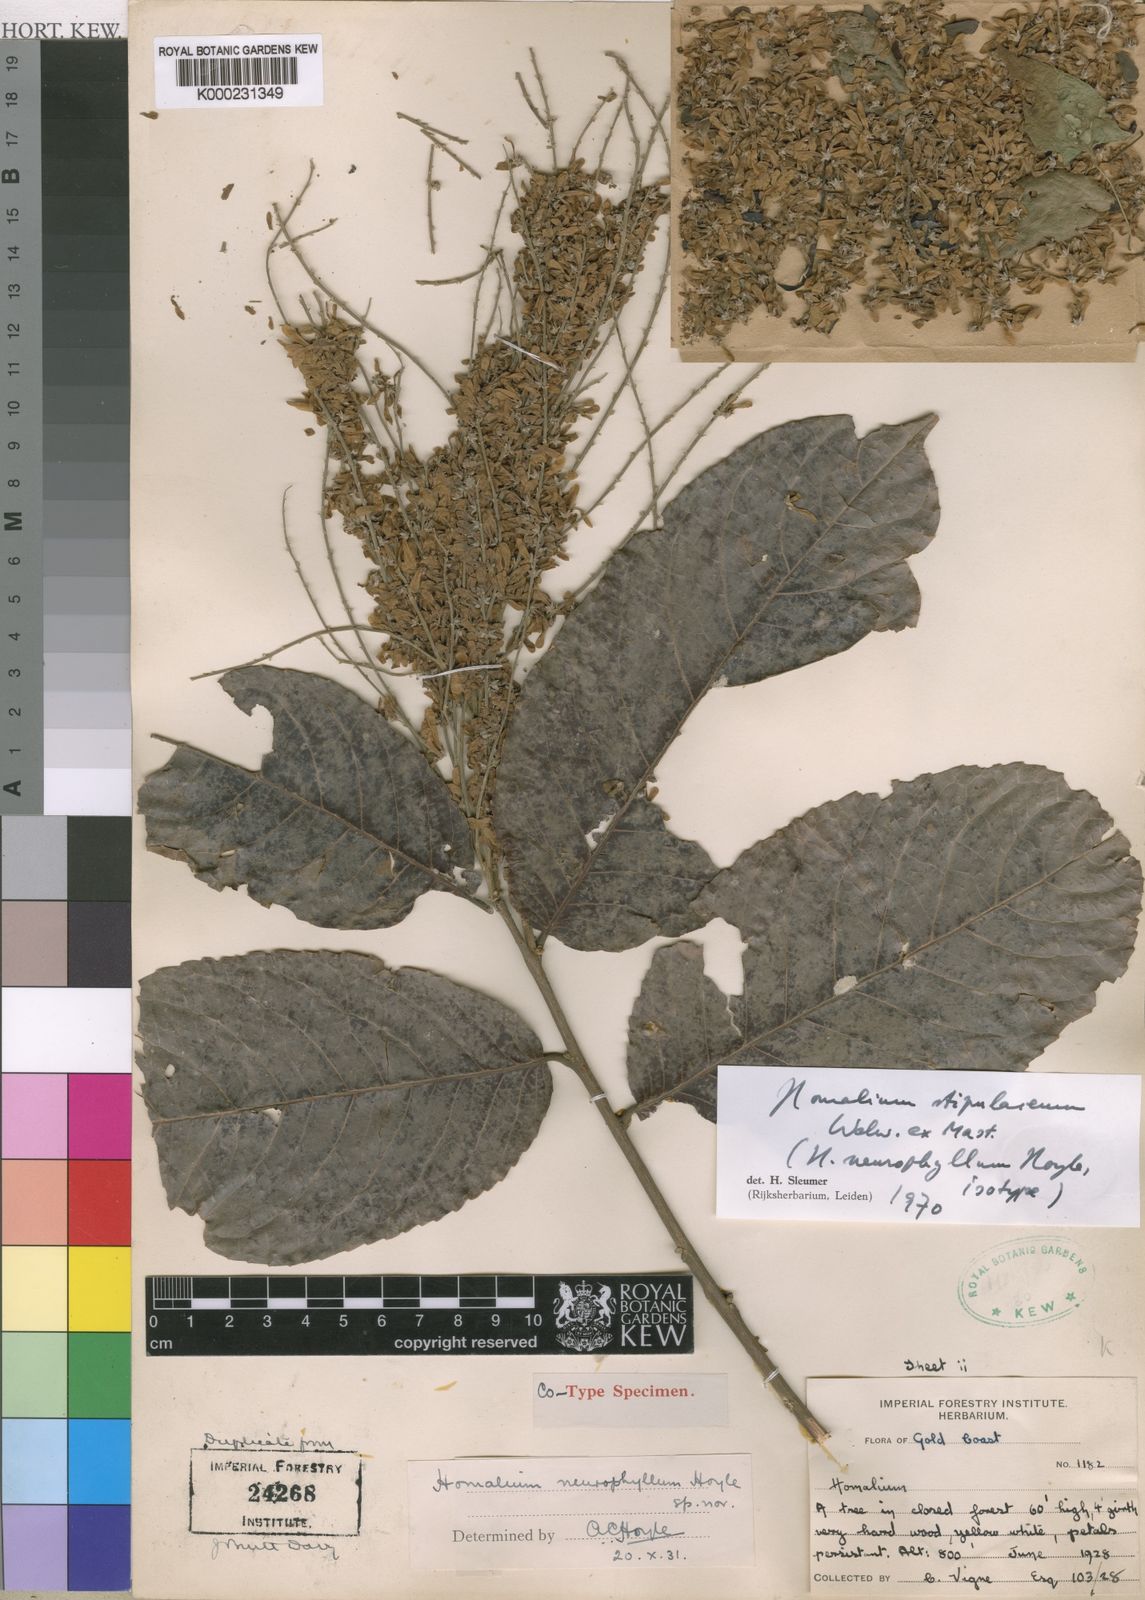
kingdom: Plantae
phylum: Tracheophyta
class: Magnoliopsida
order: Malpighiales
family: Salicaceae
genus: Homalium
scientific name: Homalium stipulaceum
